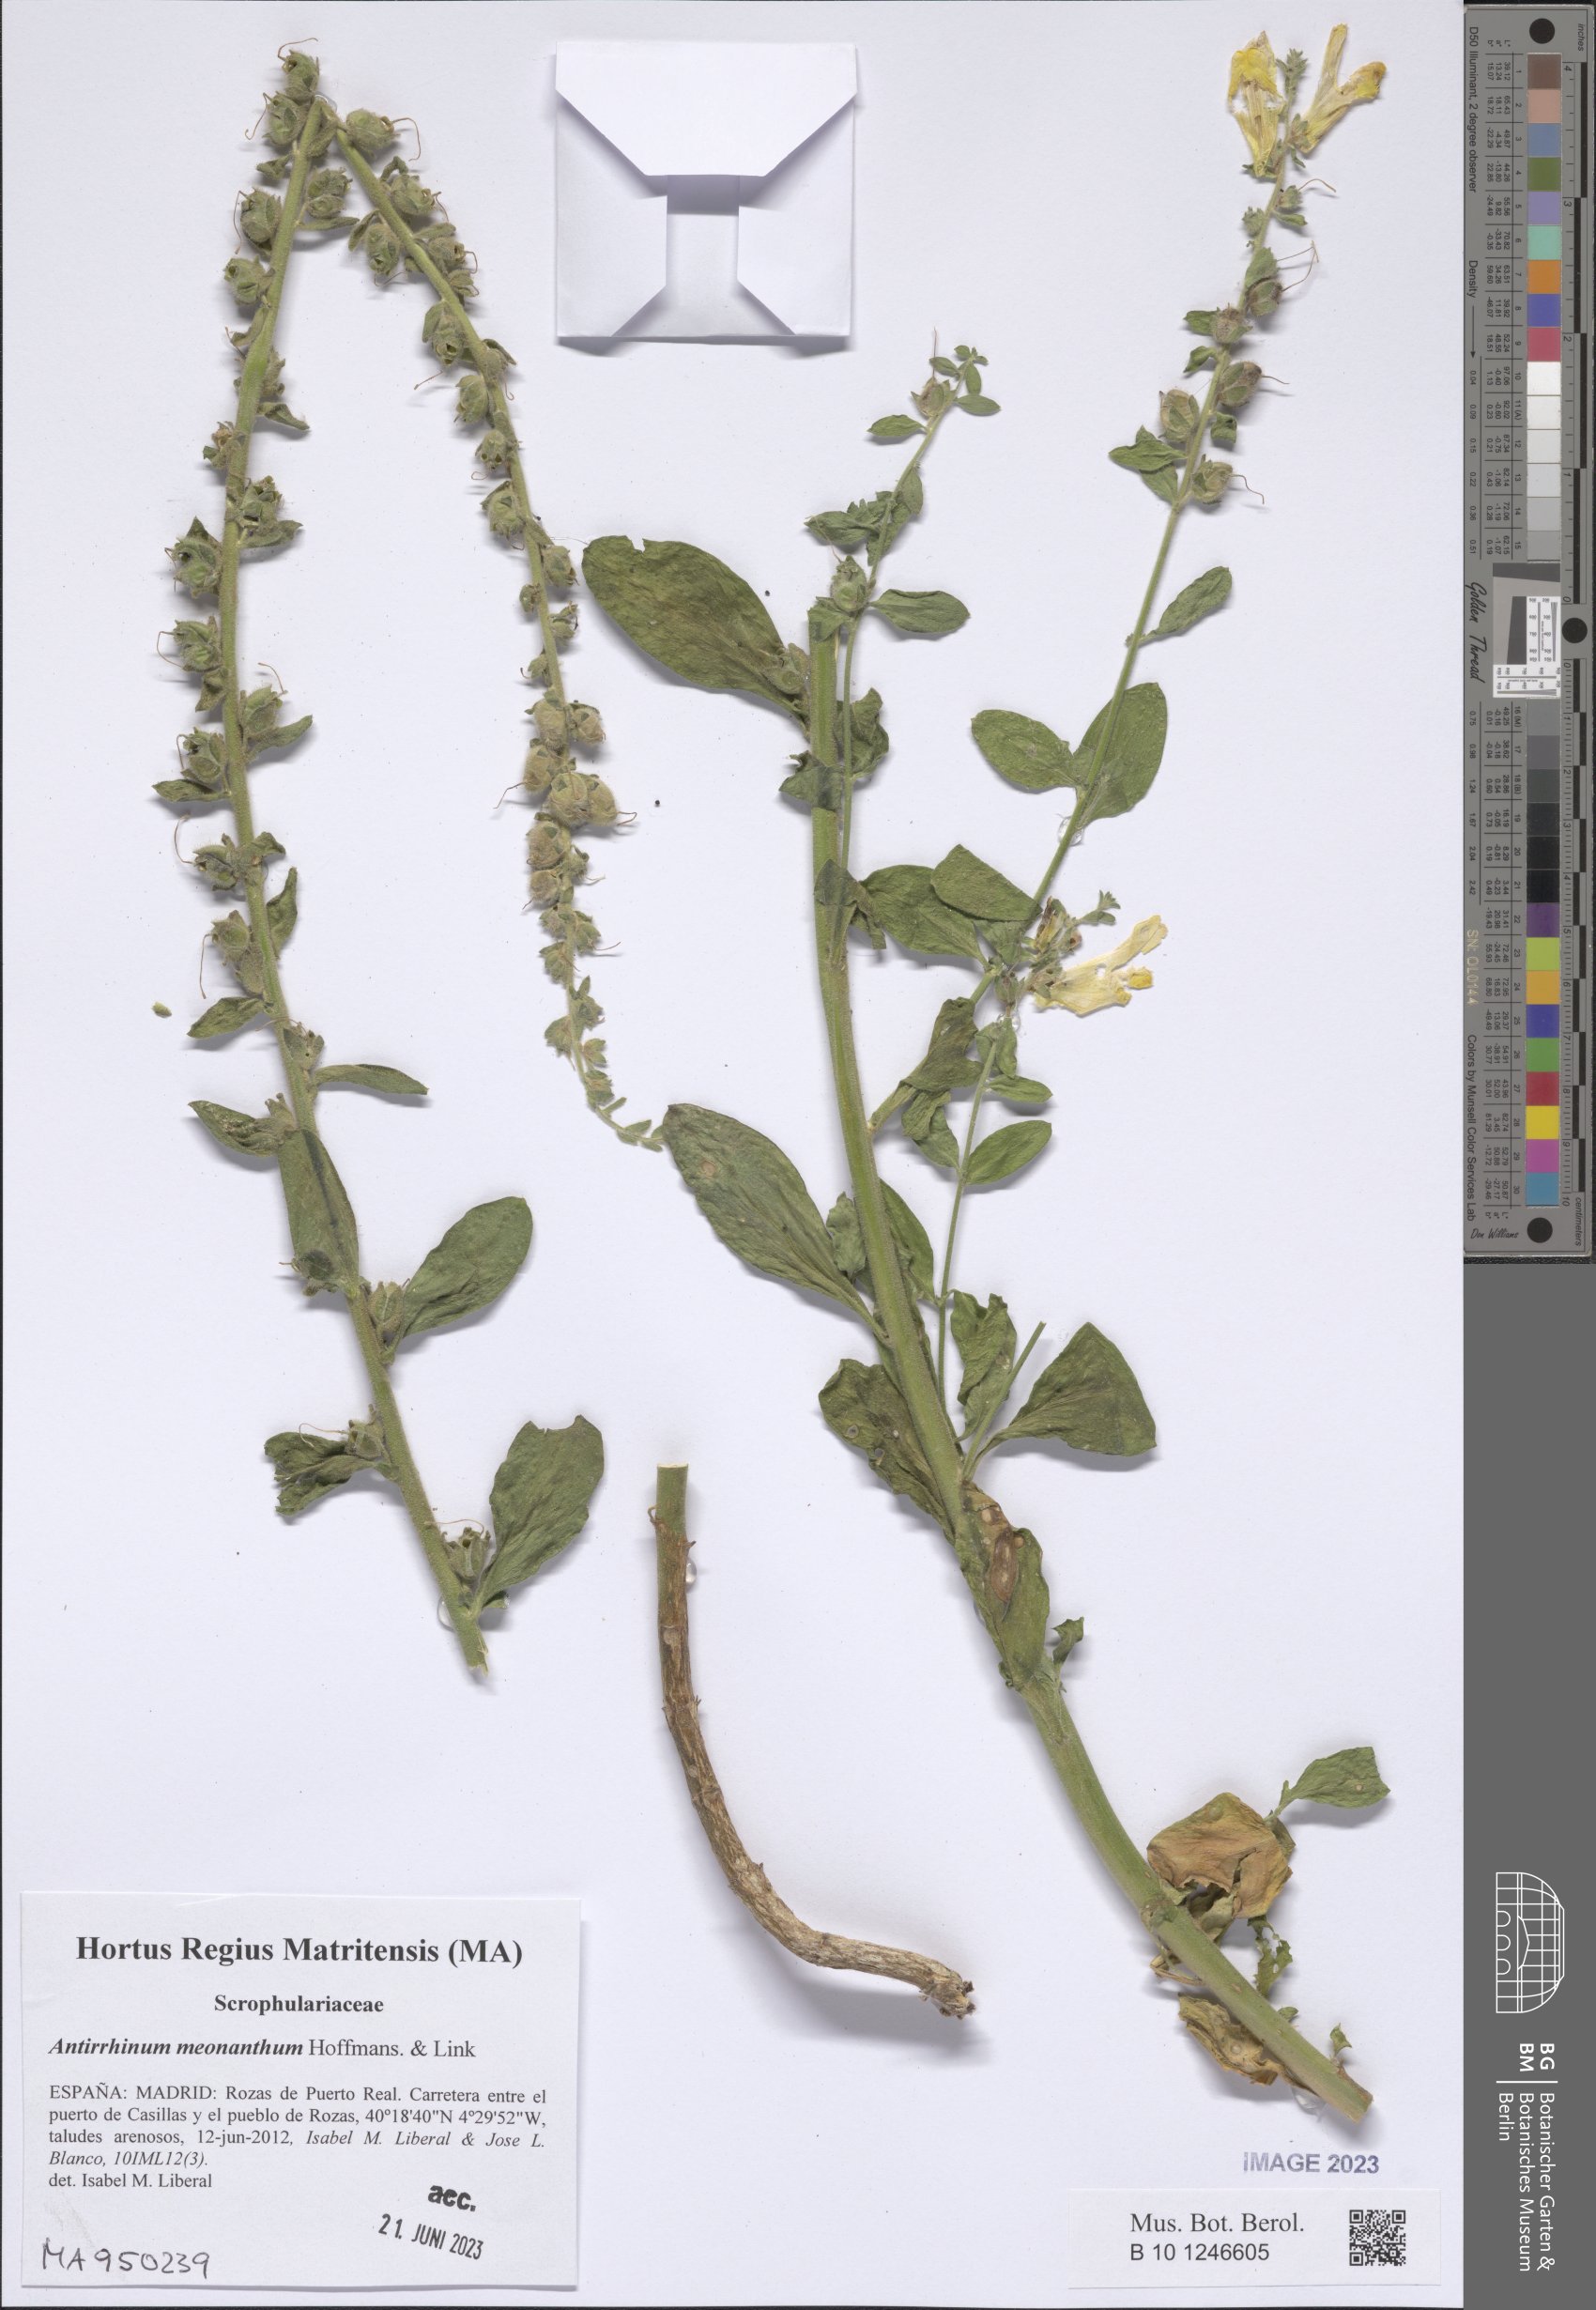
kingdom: Plantae
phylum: Tracheophyta
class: Magnoliopsida
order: Lamiales
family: Plantaginaceae
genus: Antirrhinum
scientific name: Antirrhinum meonanthum
